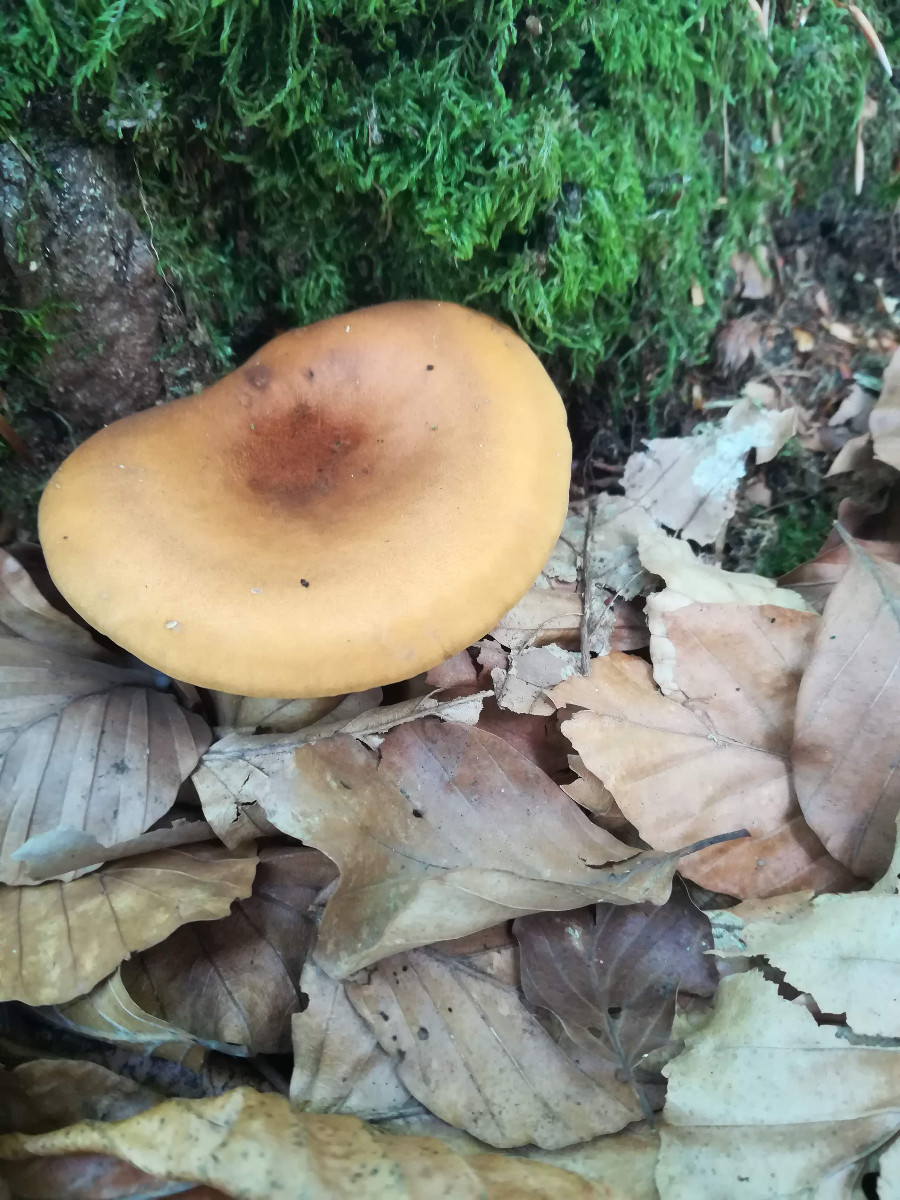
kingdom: Fungi
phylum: Basidiomycota
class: Agaricomycetes
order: Boletales
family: Hygrophoropsidaceae
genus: Hygrophoropsis
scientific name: Hygrophoropsis rufa
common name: brunfiltet orangekantarel
